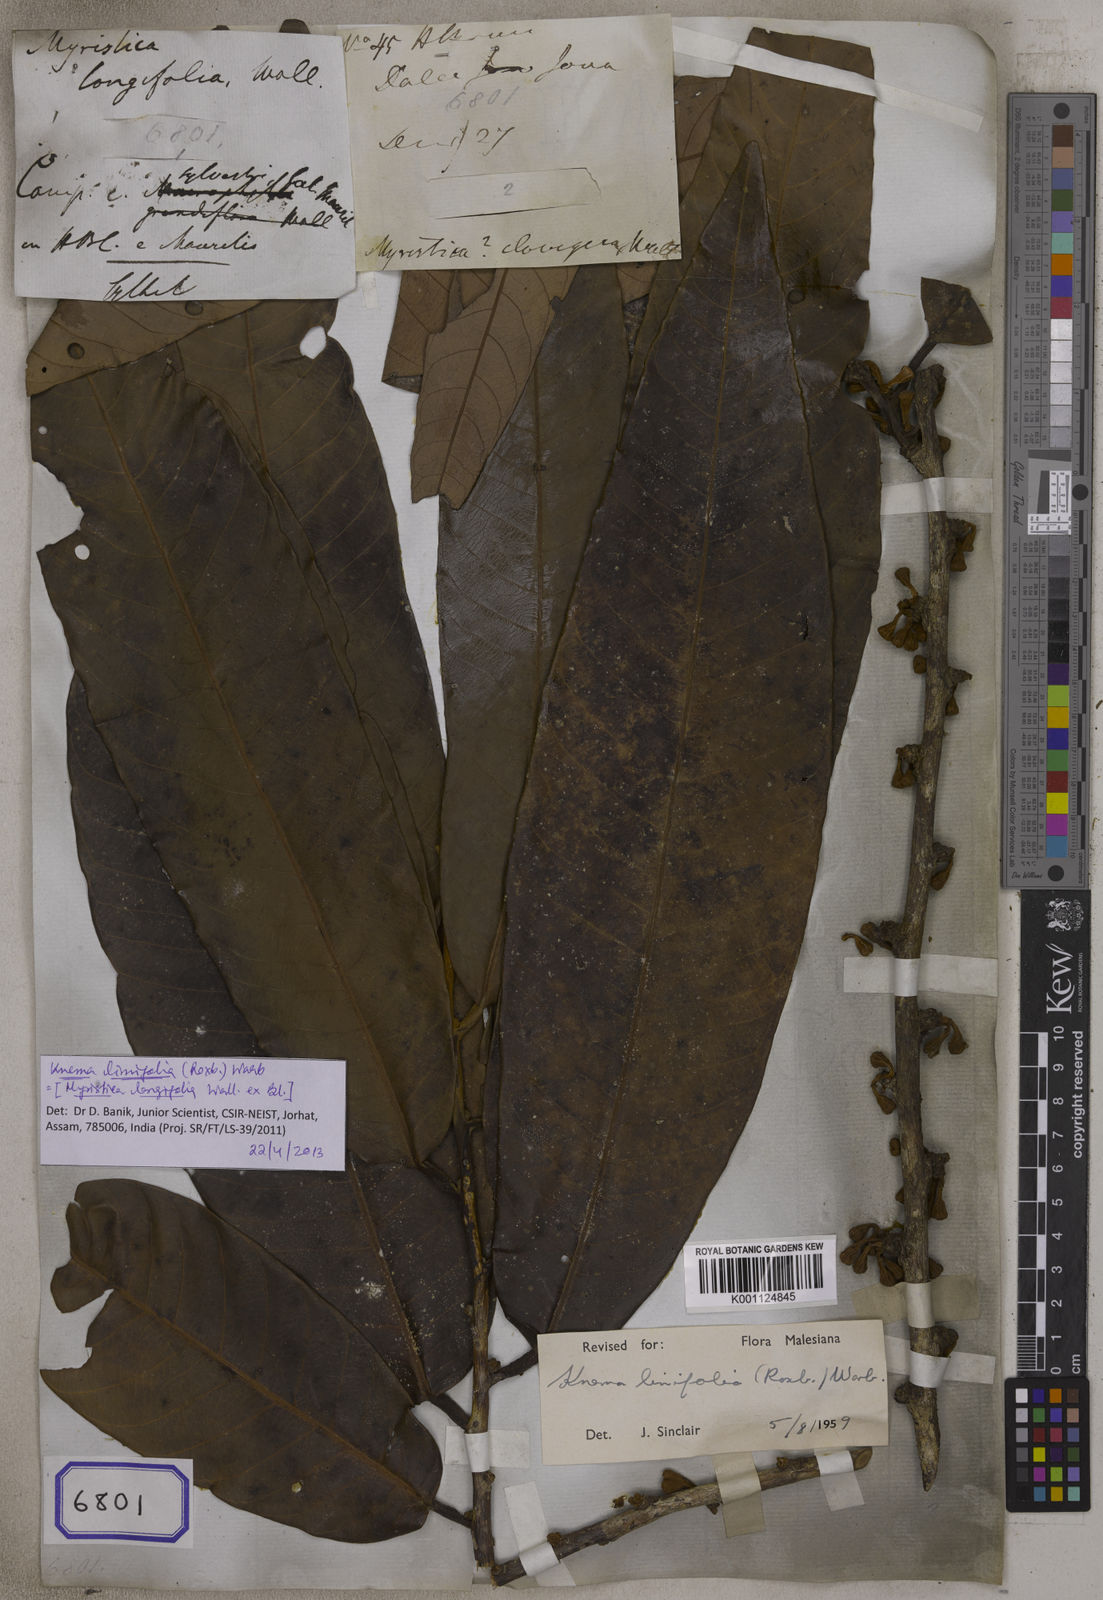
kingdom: Plantae
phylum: Tracheophyta
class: Magnoliopsida
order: Magnoliales
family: Myristicaceae
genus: Myristica
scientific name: Myristica
